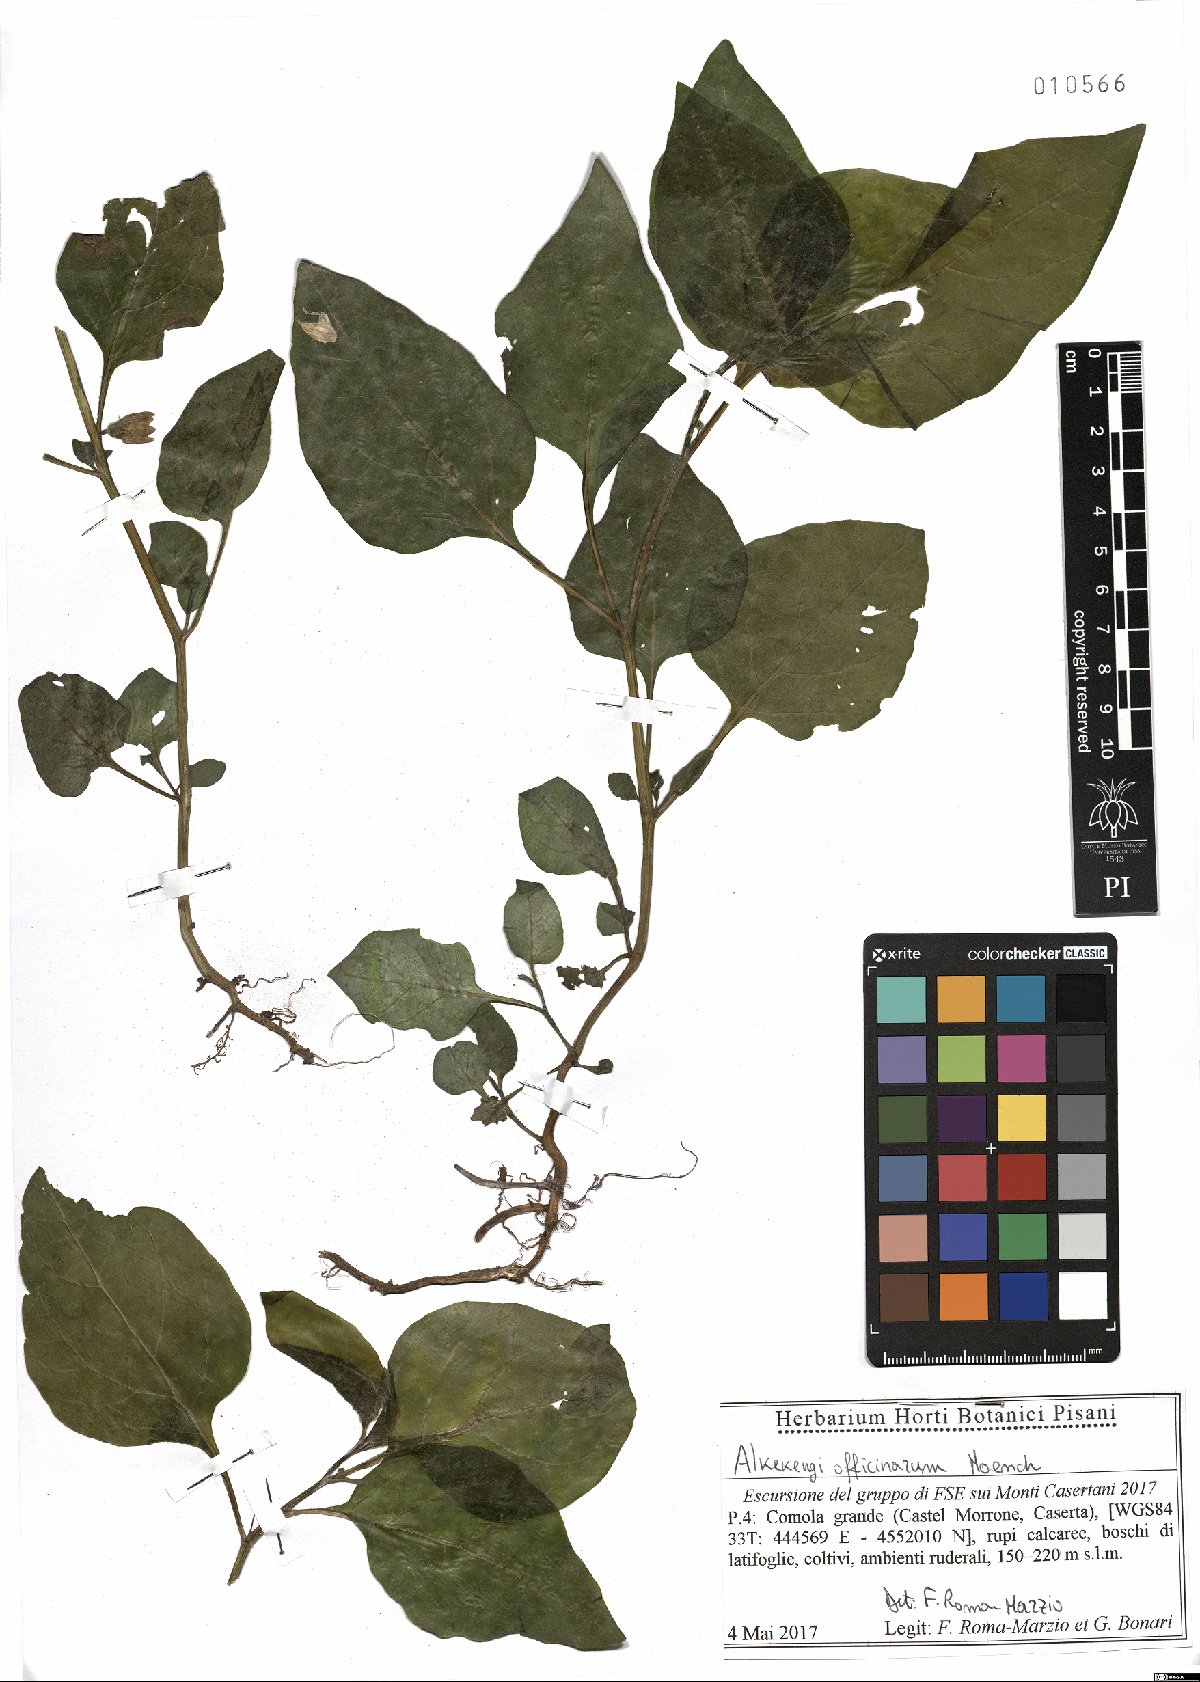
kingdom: Plantae
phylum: Tracheophyta
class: Magnoliopsida
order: Solanales
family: Solanaceae
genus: Alkekengi
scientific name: Alkekengi officinarum
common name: Japanese-lantern
